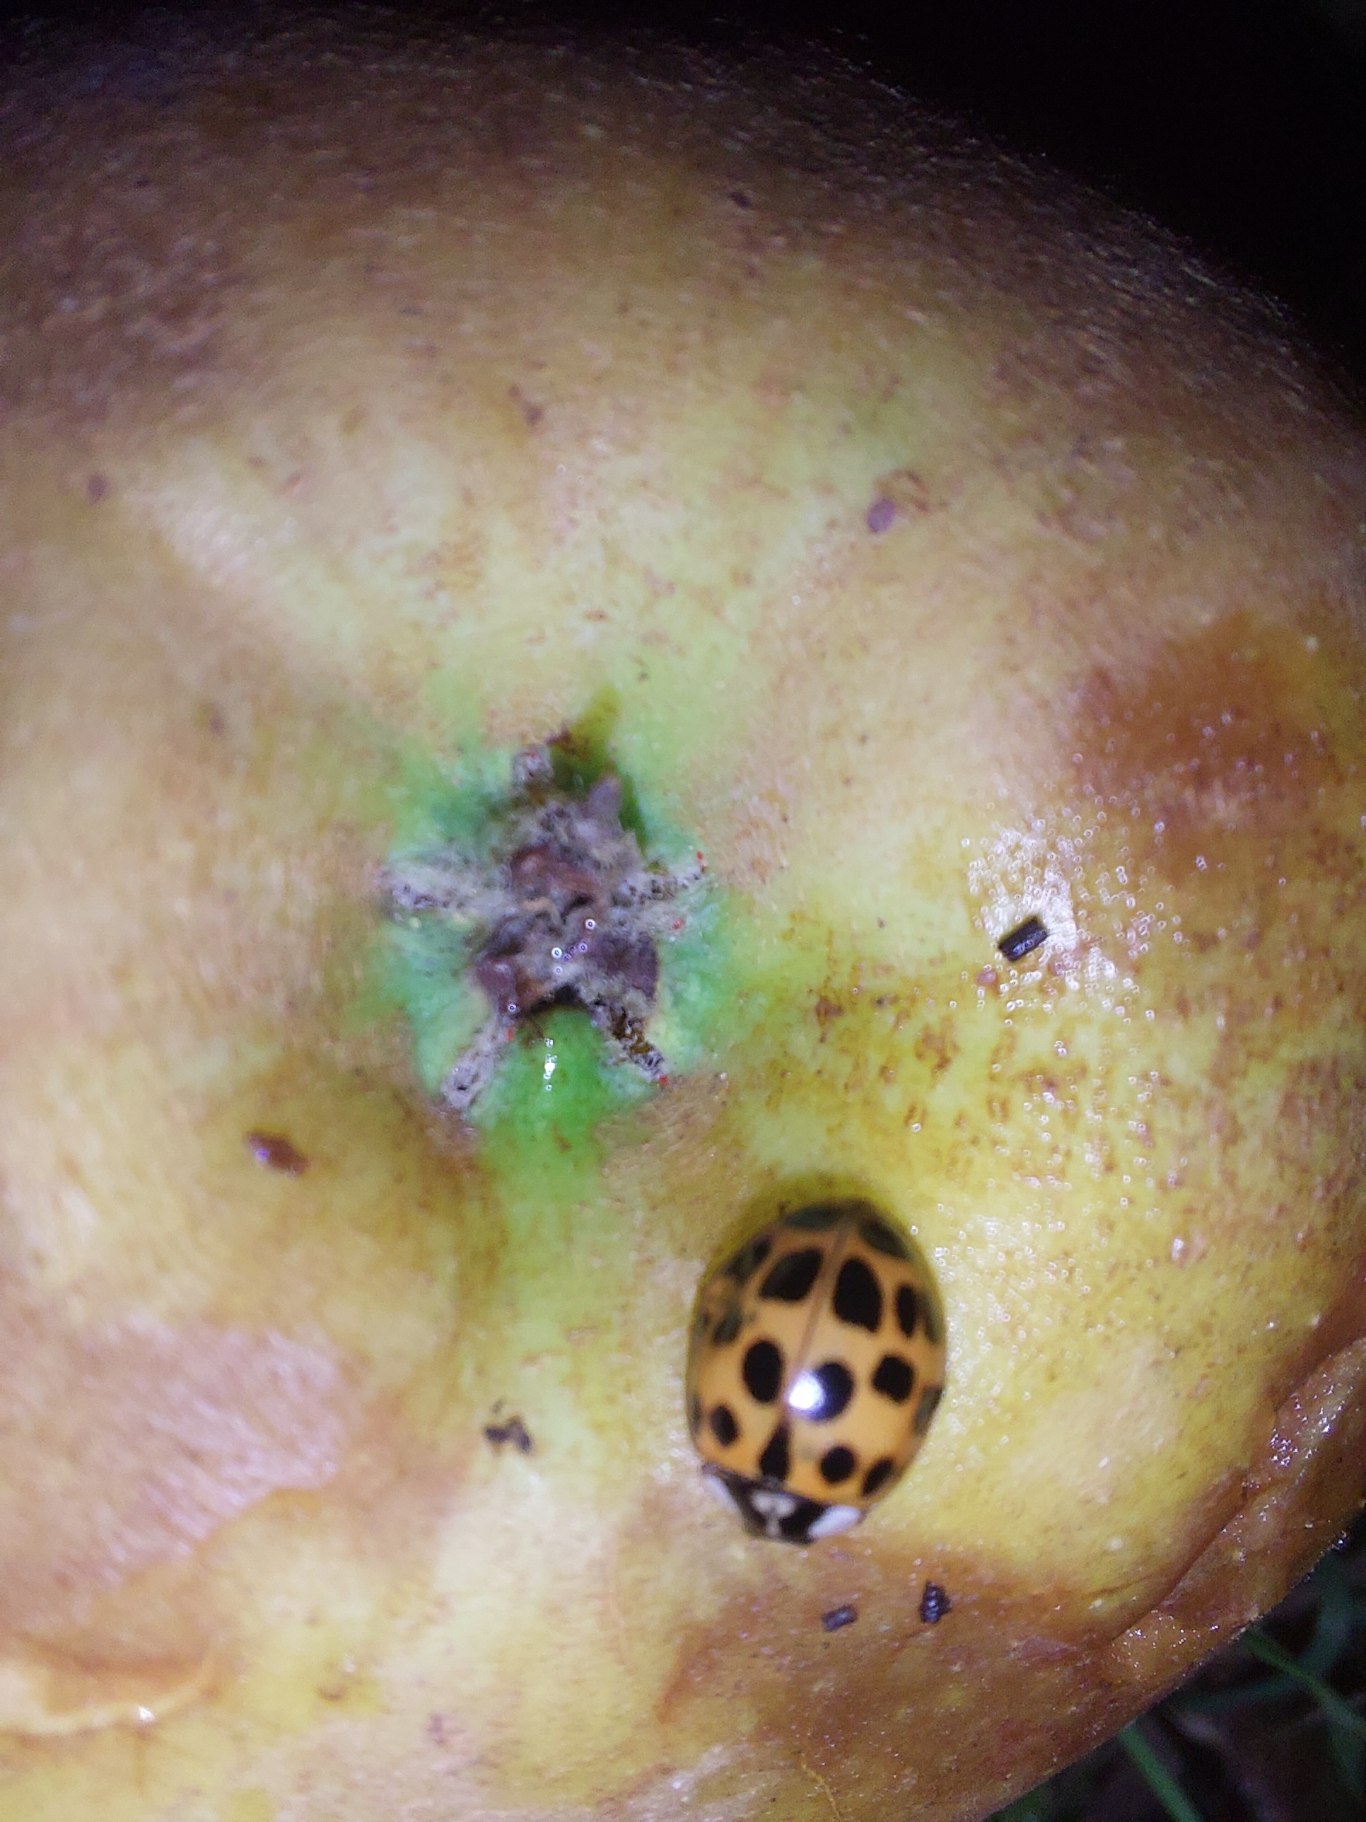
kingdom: Animalia
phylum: Arthropoda
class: Insecta
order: Coleoptera
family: Coccinellidae
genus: Harmonia
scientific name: Harmonia axyridis
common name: Harlekinmariehøne
